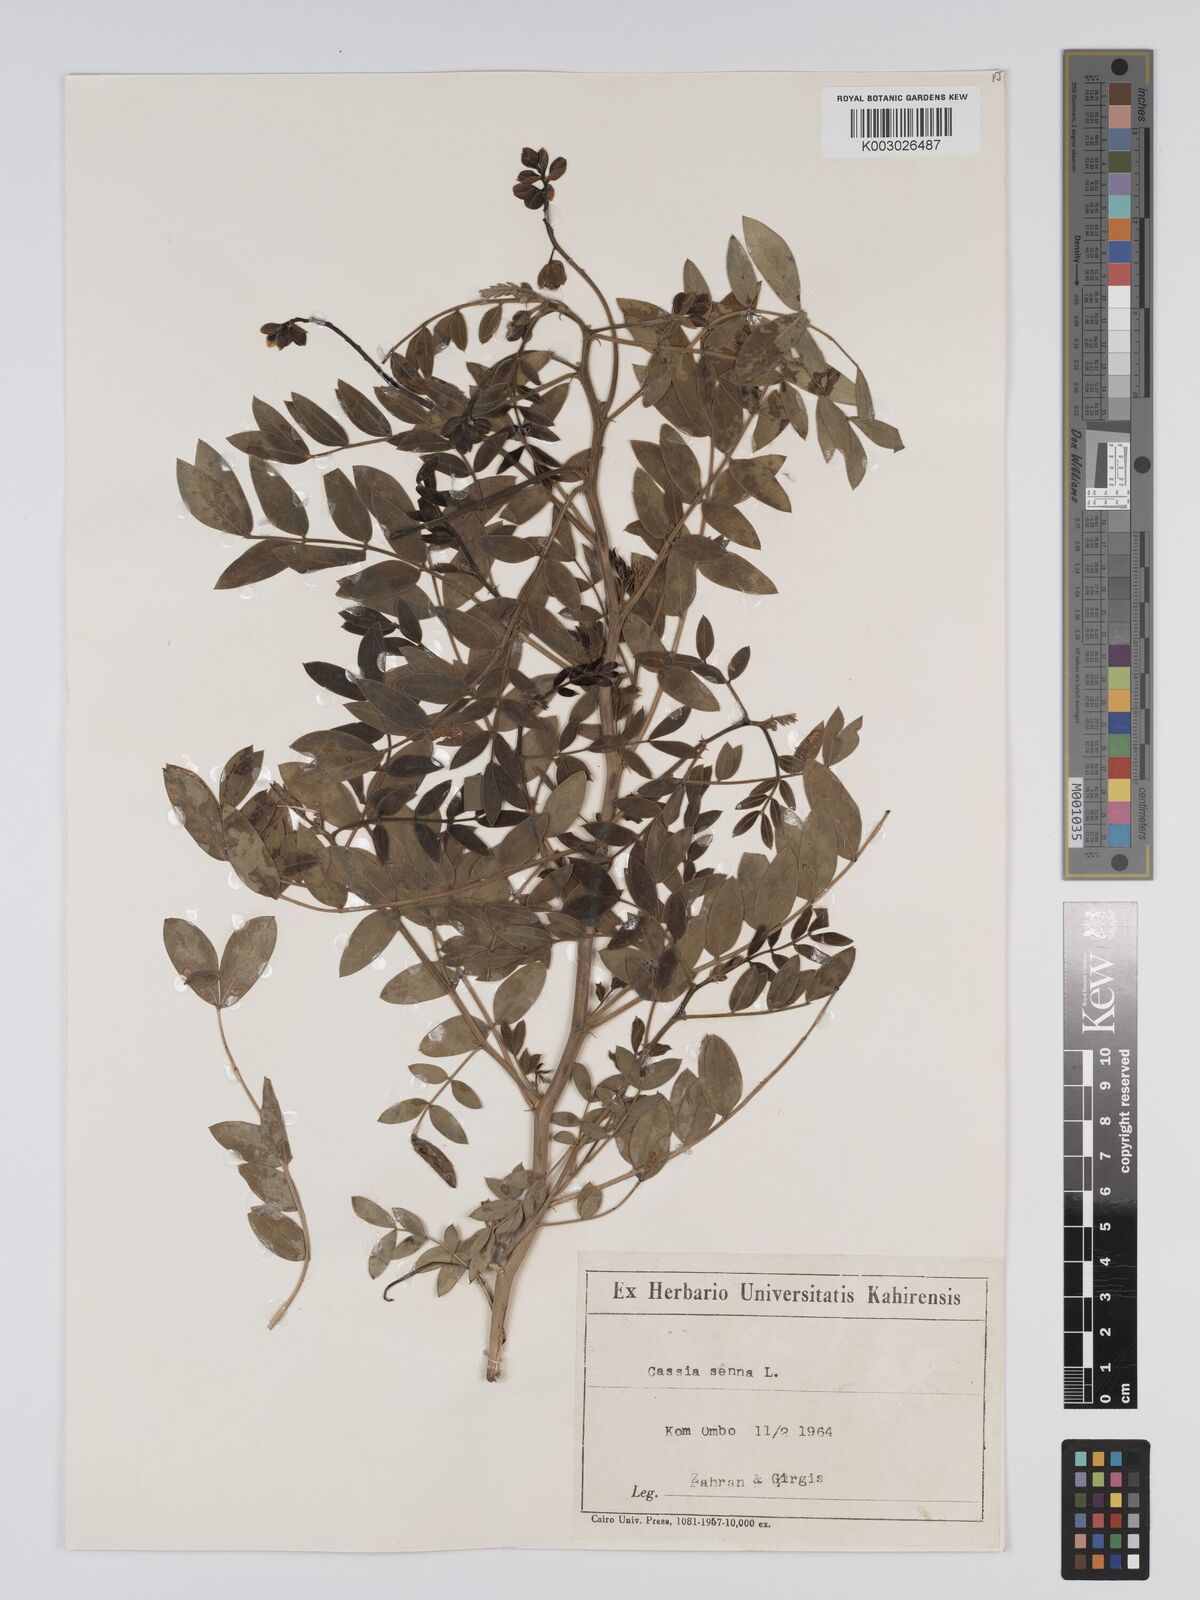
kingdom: Plantae
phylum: Tracheophyta
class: Magnoliopsida
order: Fabales
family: Fabaceae
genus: Senna
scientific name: Senna alexandrina
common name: True senna
